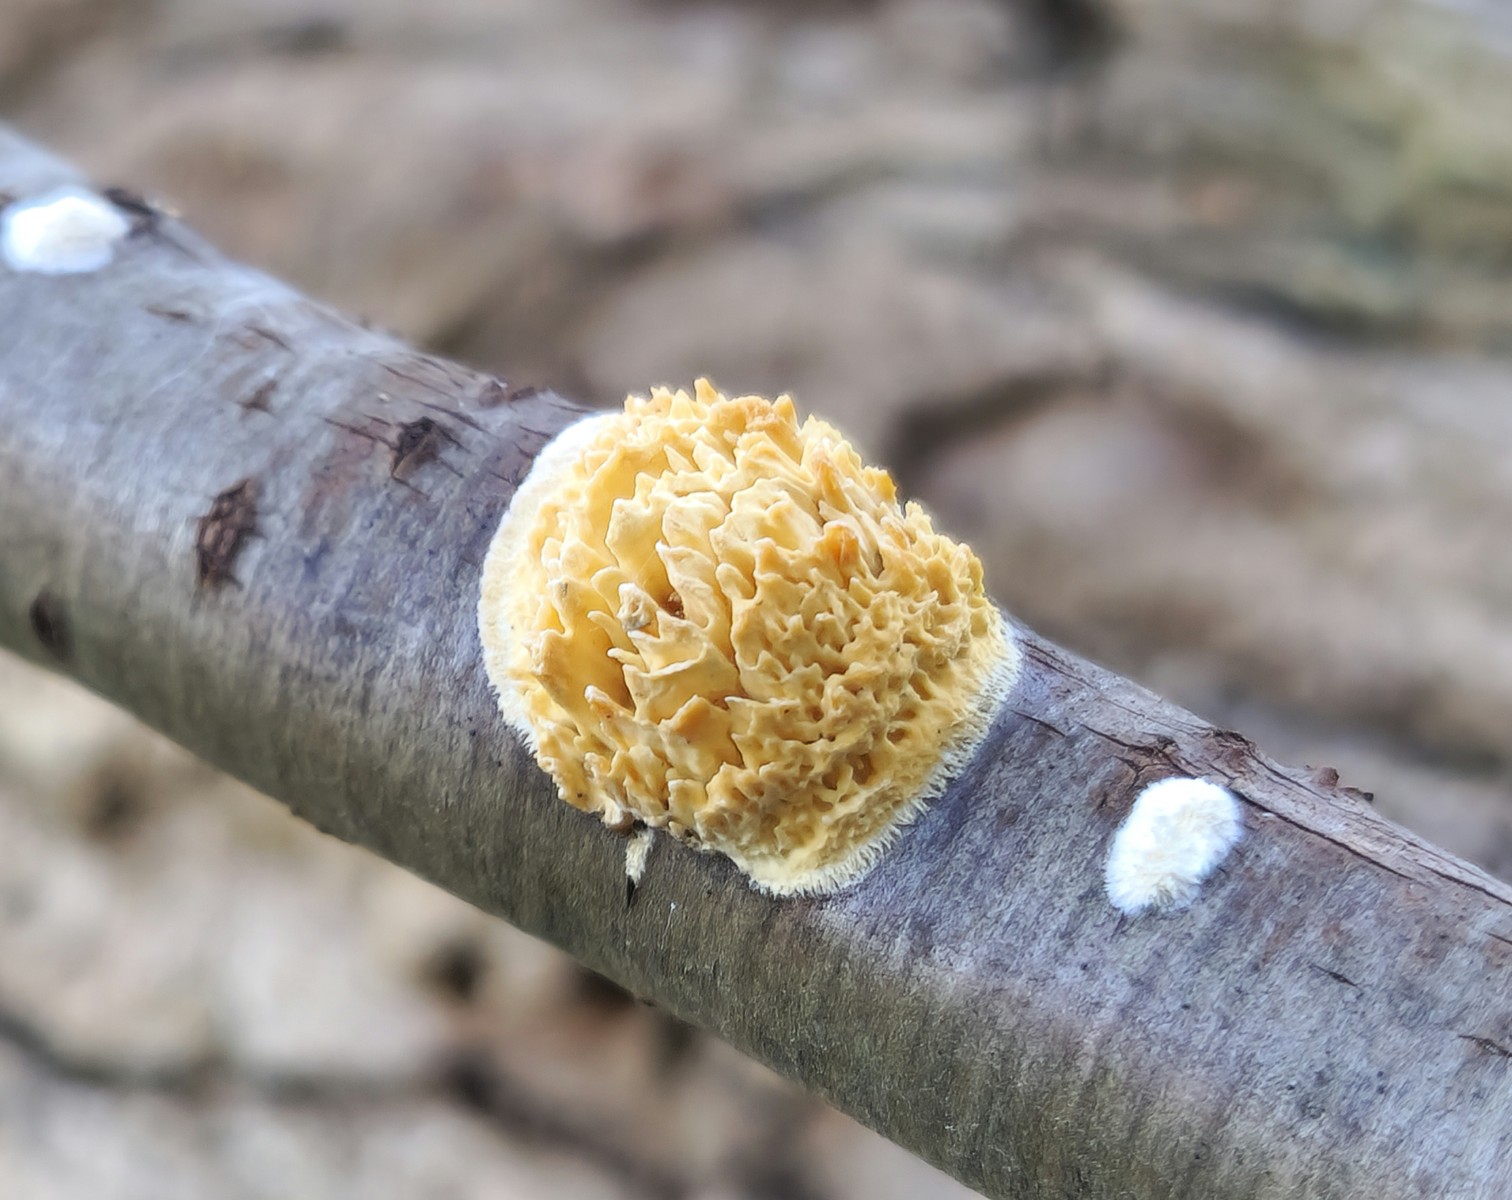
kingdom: Fungi
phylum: Basidiomycota
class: Agaricomycetes
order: Hymenochaetales
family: Schizoporaceae
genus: Xylodon
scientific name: Xylodon radula
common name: grovtandet kalkskind
